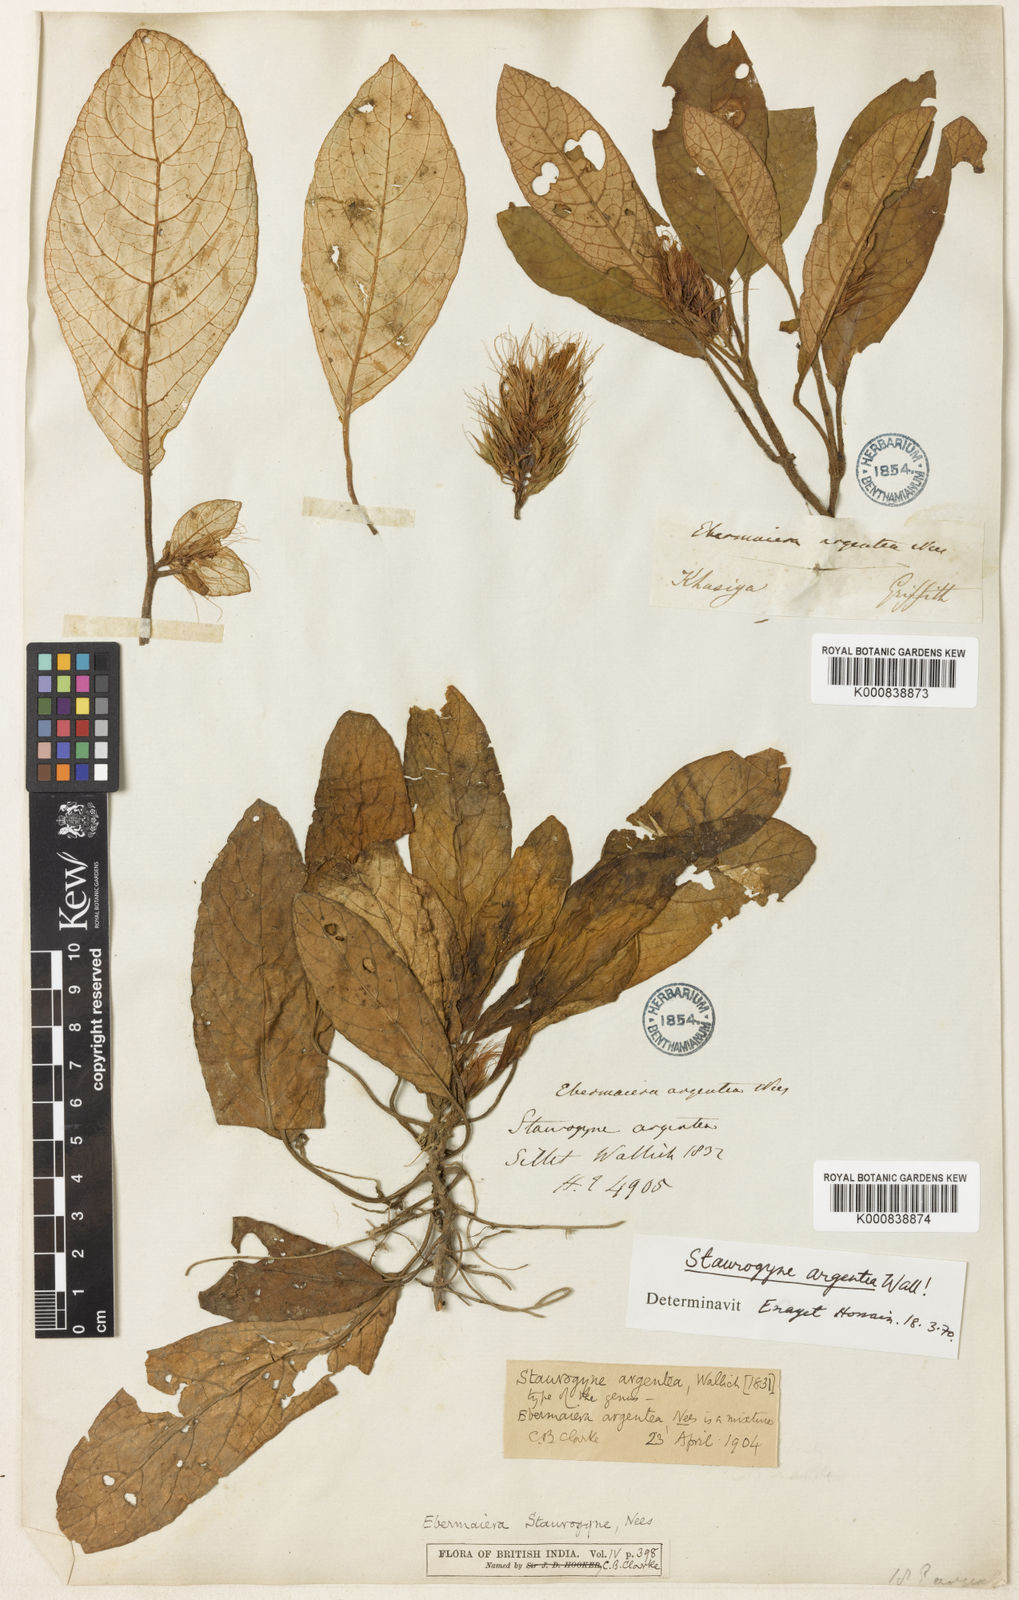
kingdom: Plantae
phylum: Tracheophyta
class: Magnoliopsida
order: Lamiales
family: Acanthaceae
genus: Staurogyne
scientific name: Staurogyne argentea
